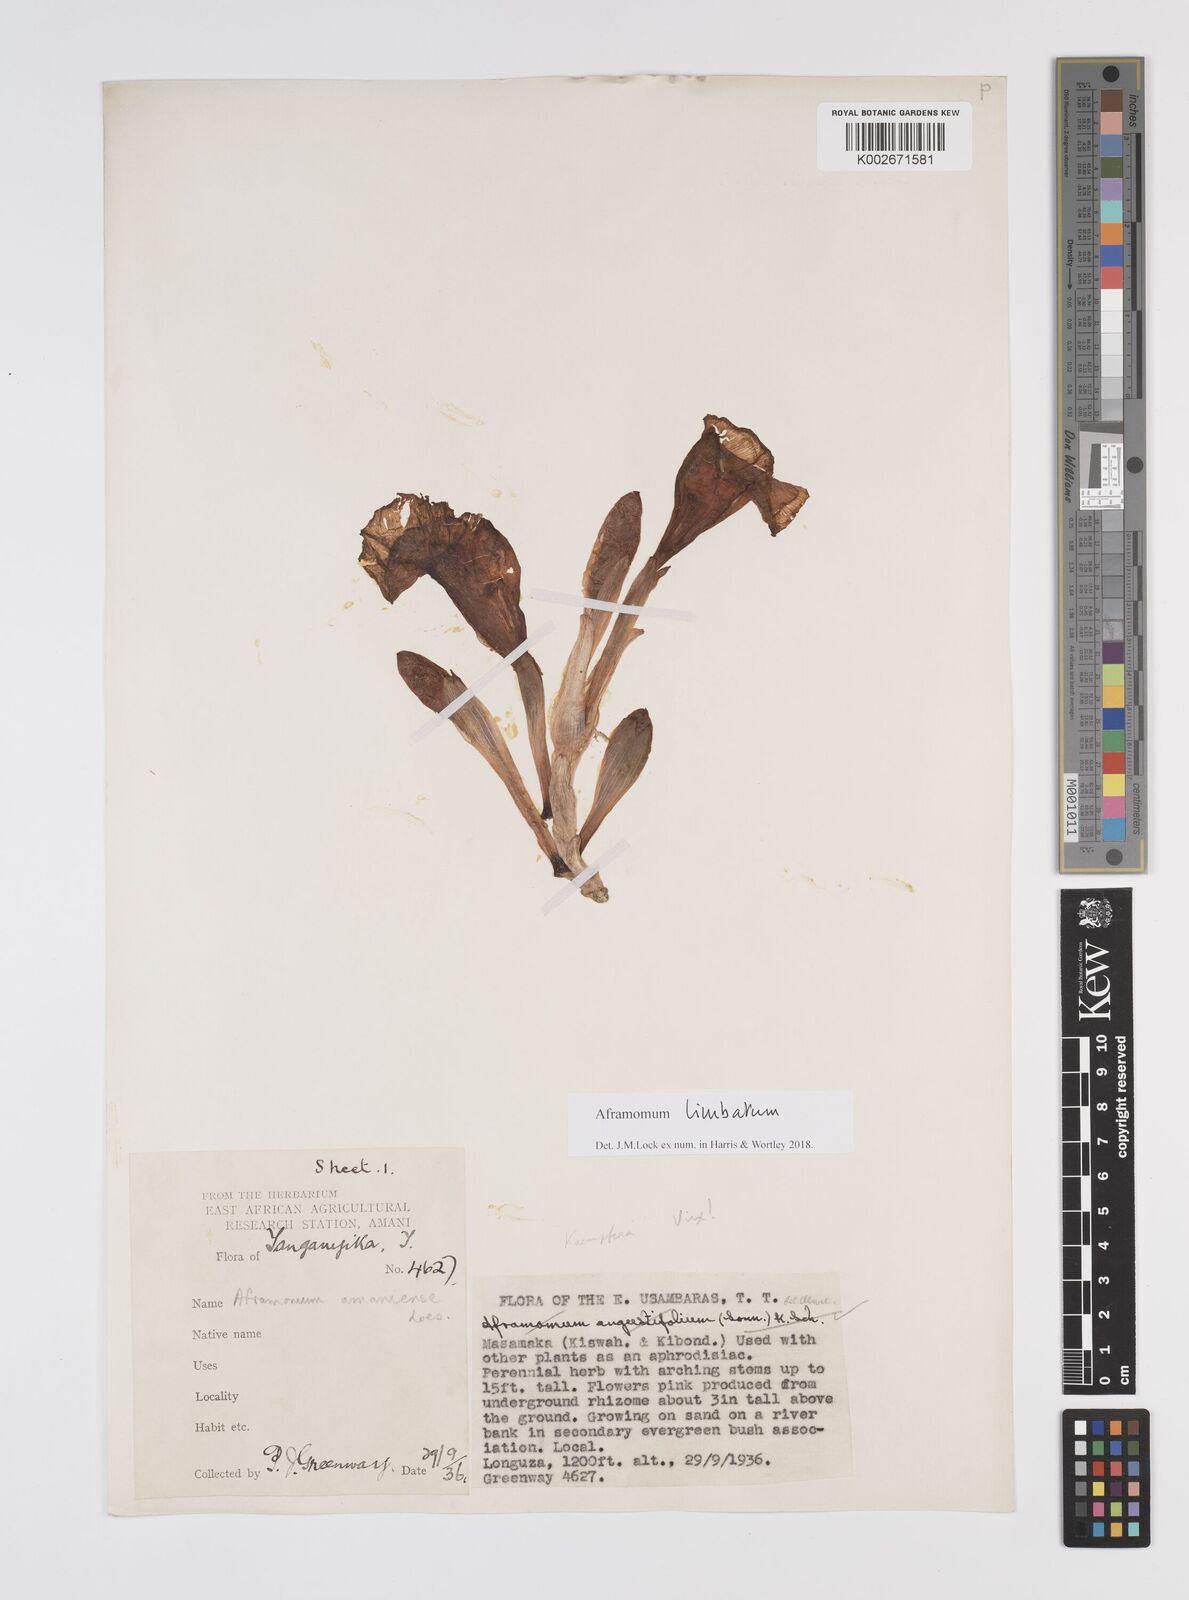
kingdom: Plantae
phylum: Tracheophyta
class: Liliopsida
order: Zingiberales
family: Zingiberaceae
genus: Aframomum
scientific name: Aframomum limbatum
